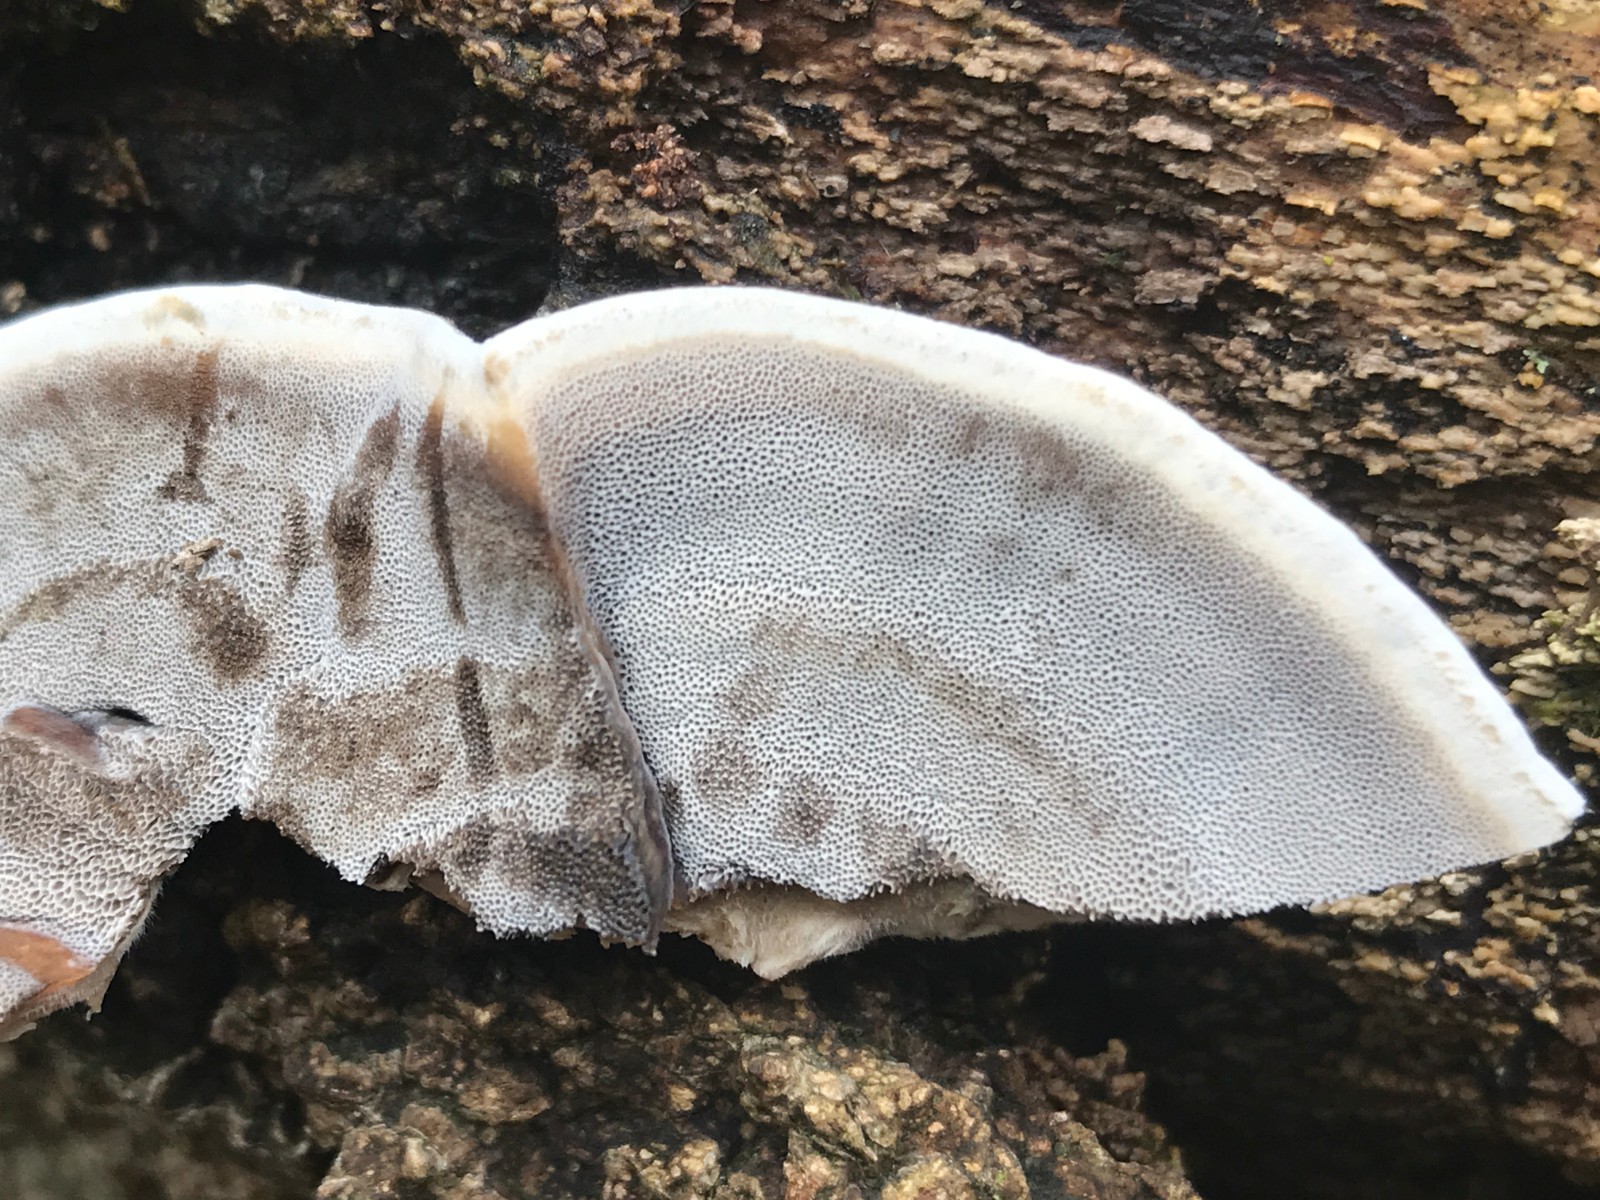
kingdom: Fungi
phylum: Basidiomycota
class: Agaricomycetes
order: Polyporales
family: Phanerochaetaceae
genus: Bjerkandera
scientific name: Bjerkandera adusta
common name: sveden sodporesvamp
